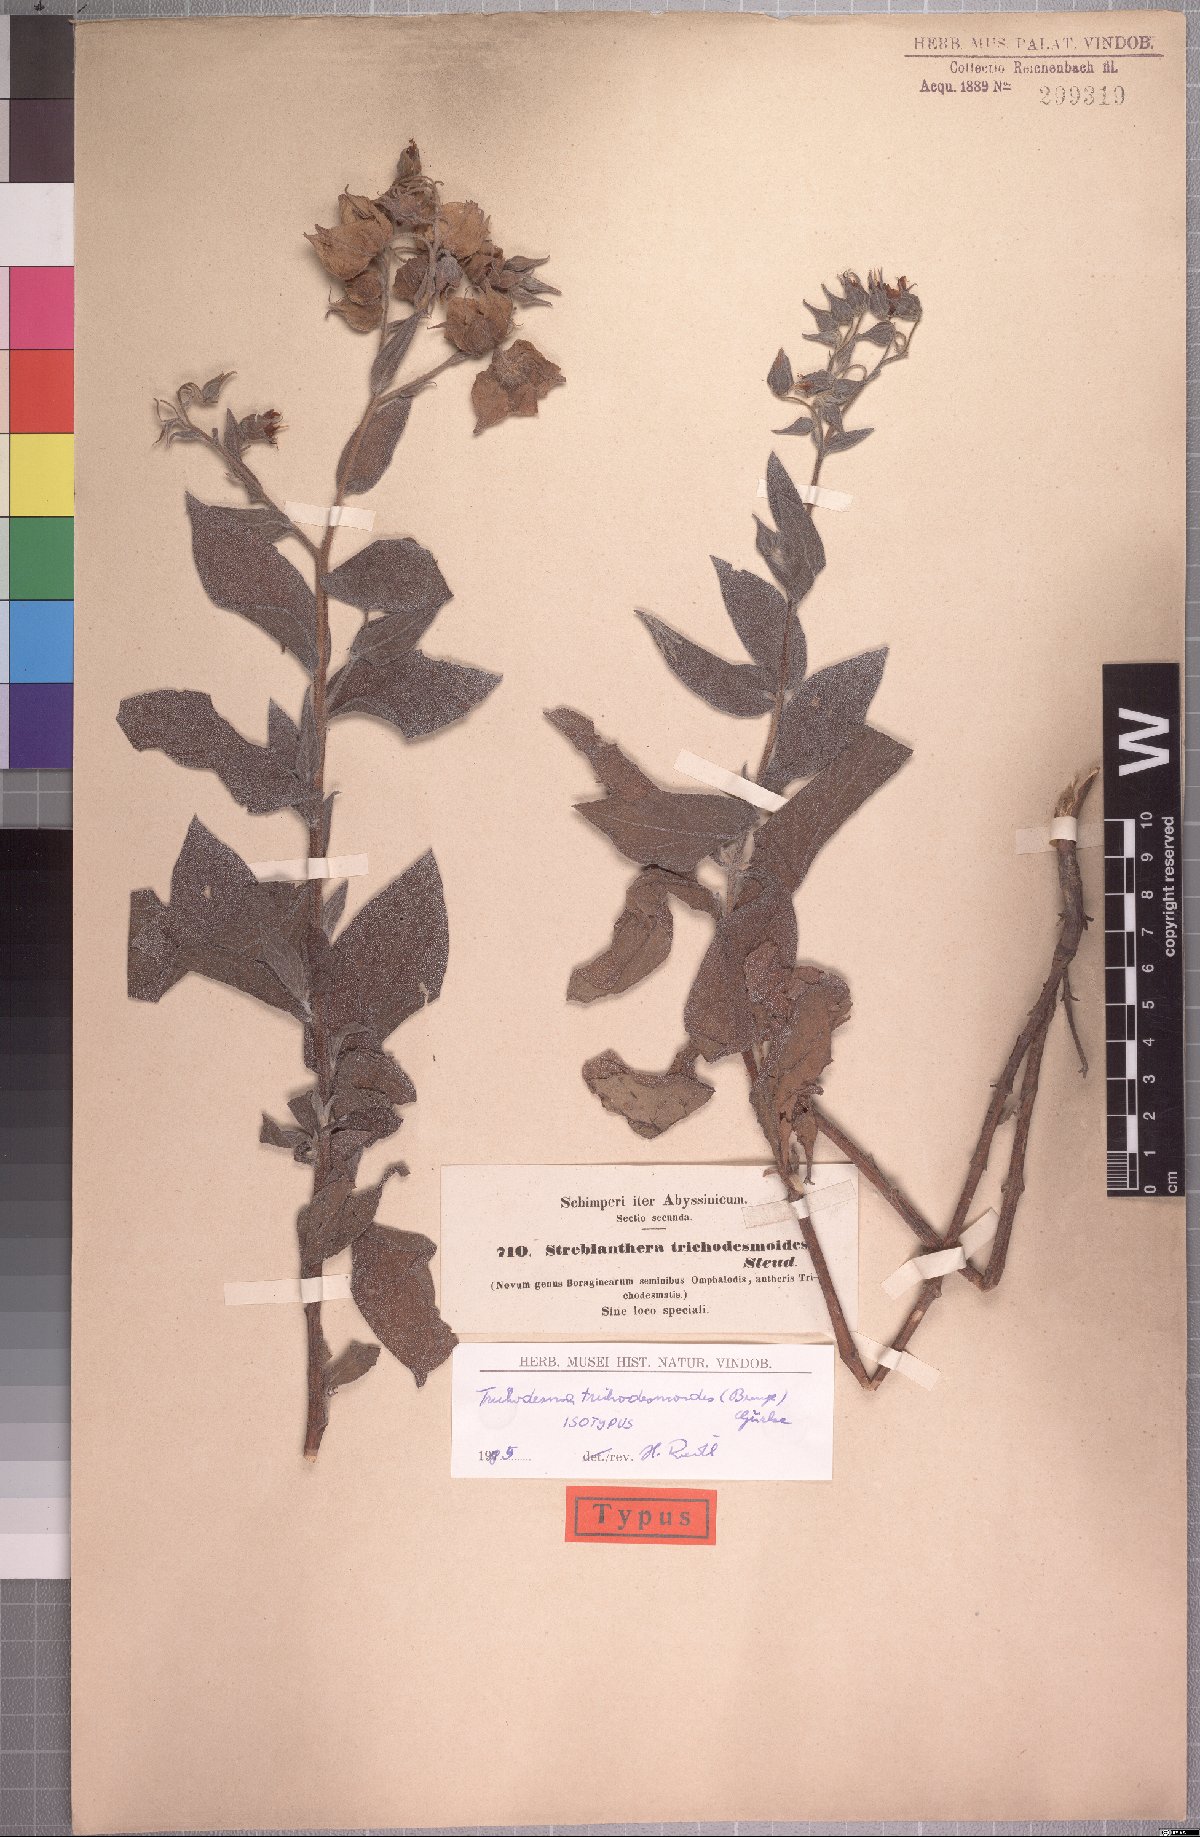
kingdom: Plantae
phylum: Tracheophyta
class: Magnoliopsida
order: Boraginales
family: Boraginaceae
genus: Trichodesma
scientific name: Trichodesma trichodesmoides
